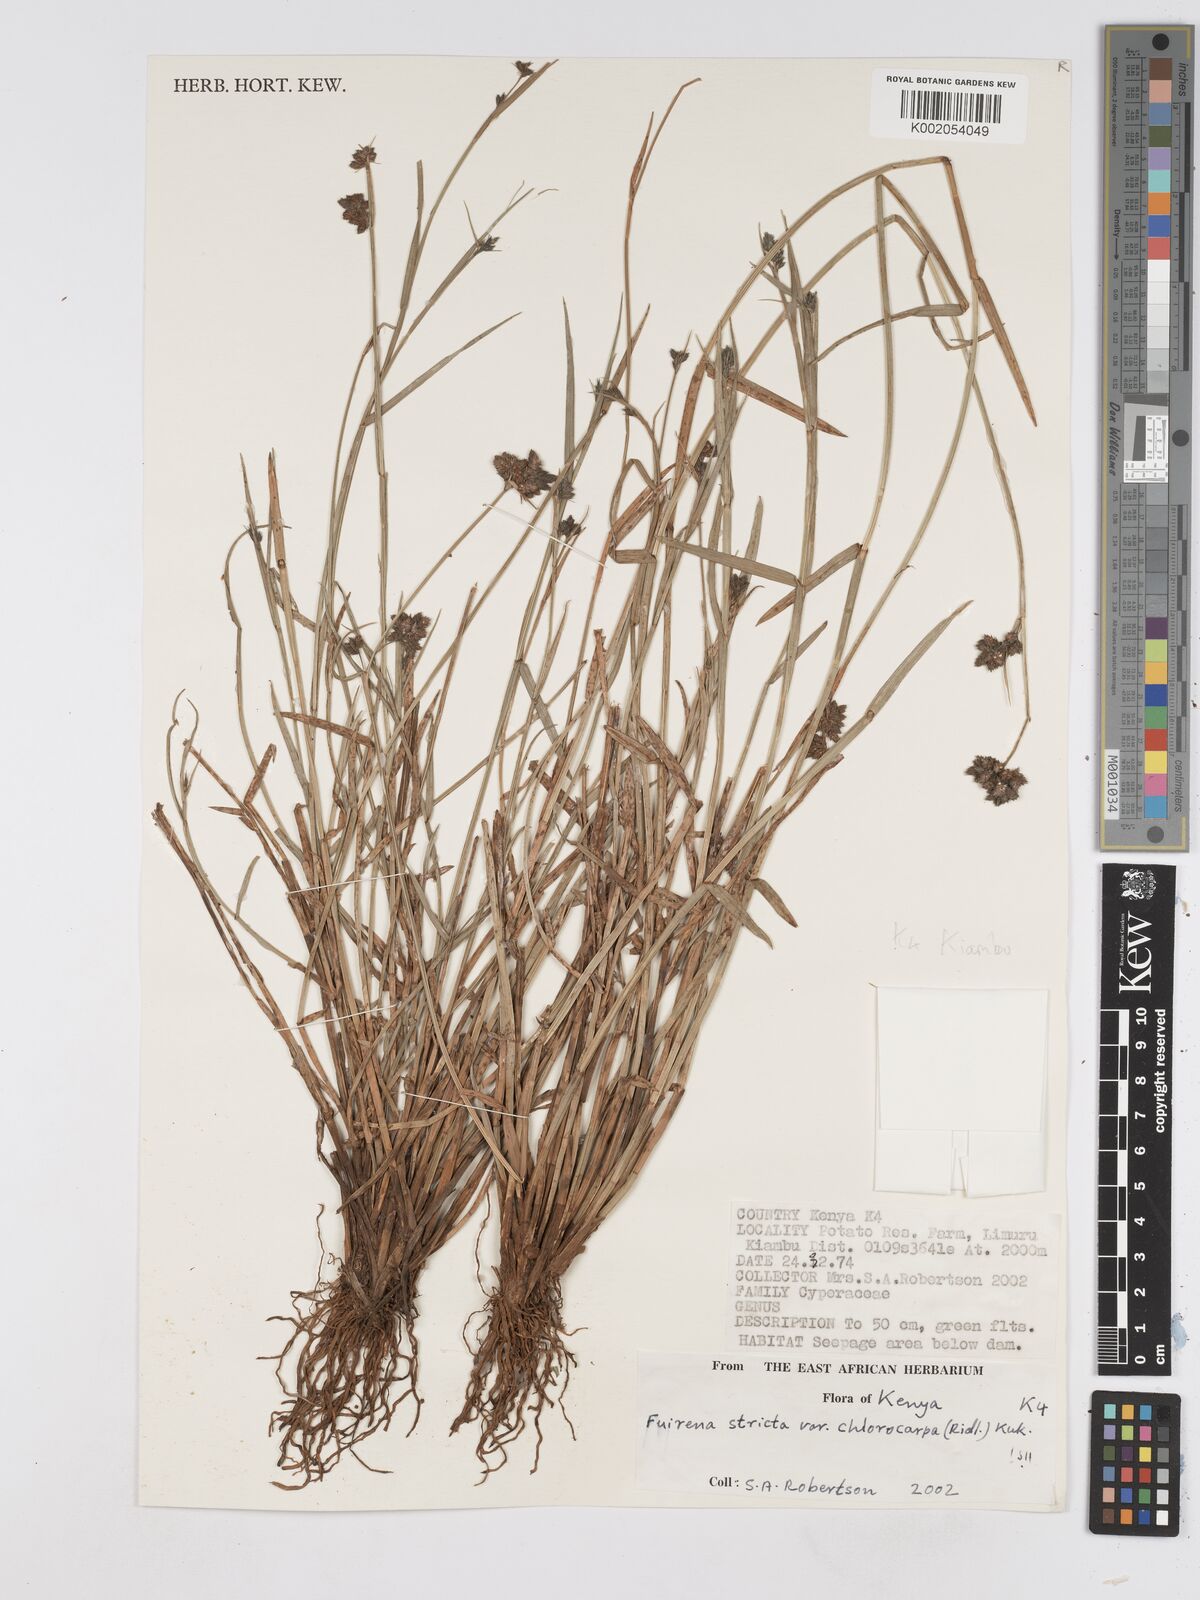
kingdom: Plantae
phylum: Tracheophyta
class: Liliopsida
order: Poales
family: Cyperaceae
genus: Fuirena
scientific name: Fuirena stricta
